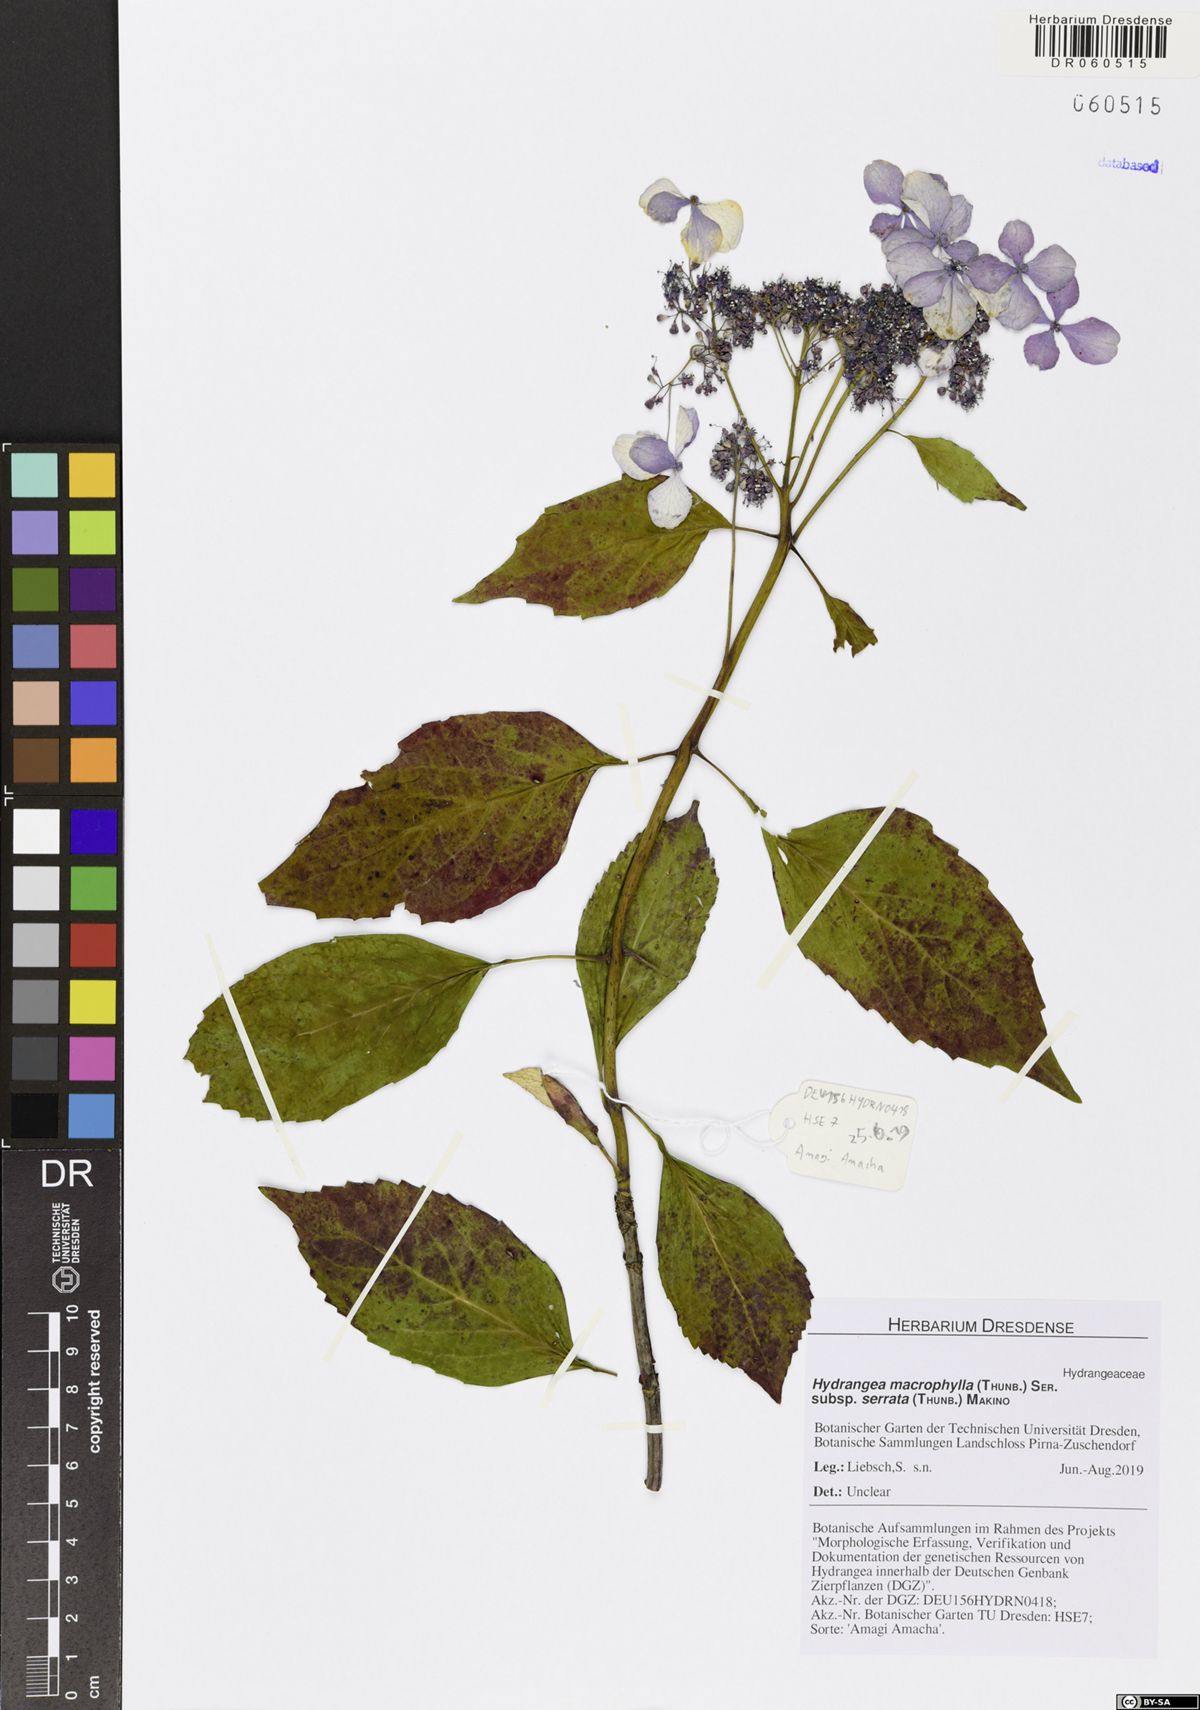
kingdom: Plantae
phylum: Tracheophyta
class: Magnoliopsida
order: Cornales
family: Hydrangeaceae
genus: Hydrangea
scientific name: Hydrangea serrata
